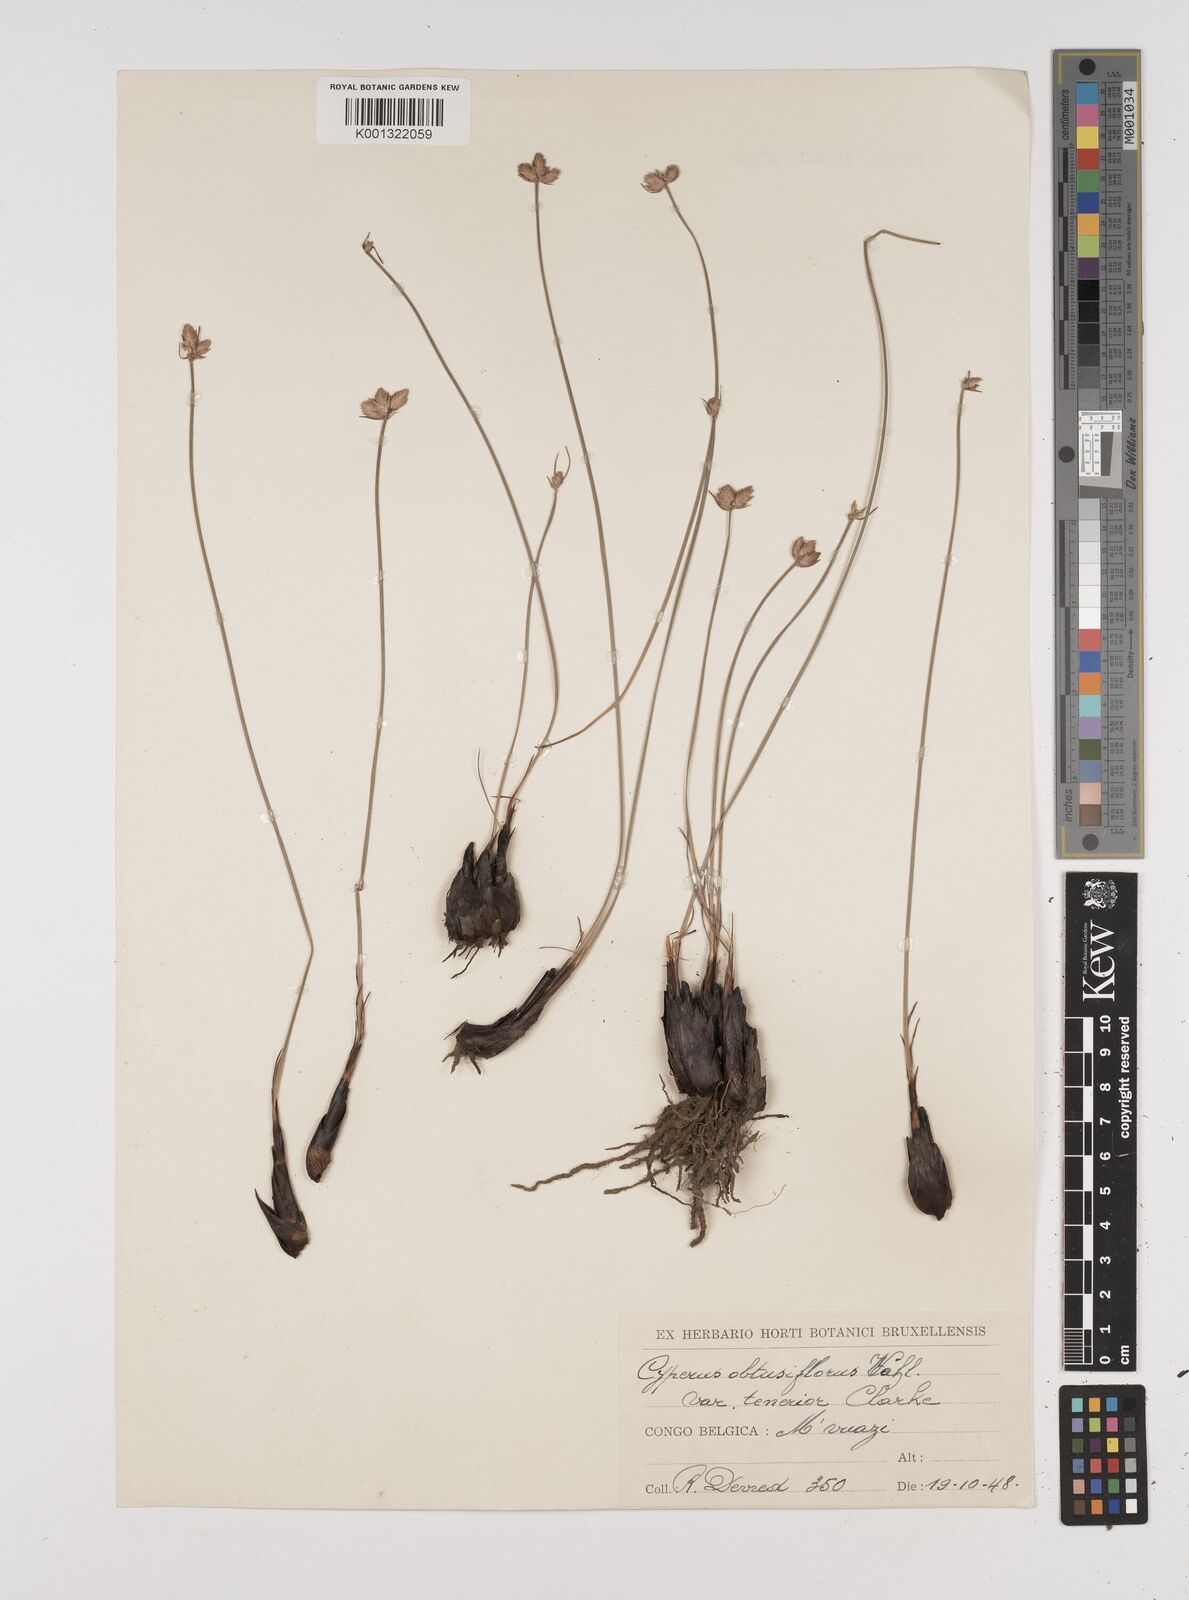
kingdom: Plantae
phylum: Tracheophyta
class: Liliopsida
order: Poales
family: Cyperaceae
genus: Cyperus
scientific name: Cyperus nduru
